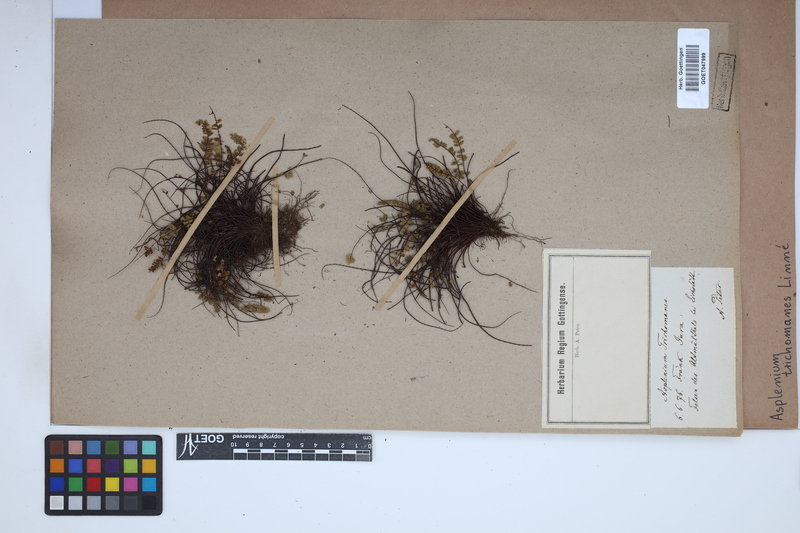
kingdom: Plantae
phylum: Tracheophyta
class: Polypodiopsida
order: Polypodiales
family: Aspleniaceae
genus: Asplenium
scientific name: Asplenium trichomanes
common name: Maidenhair spleenwort
